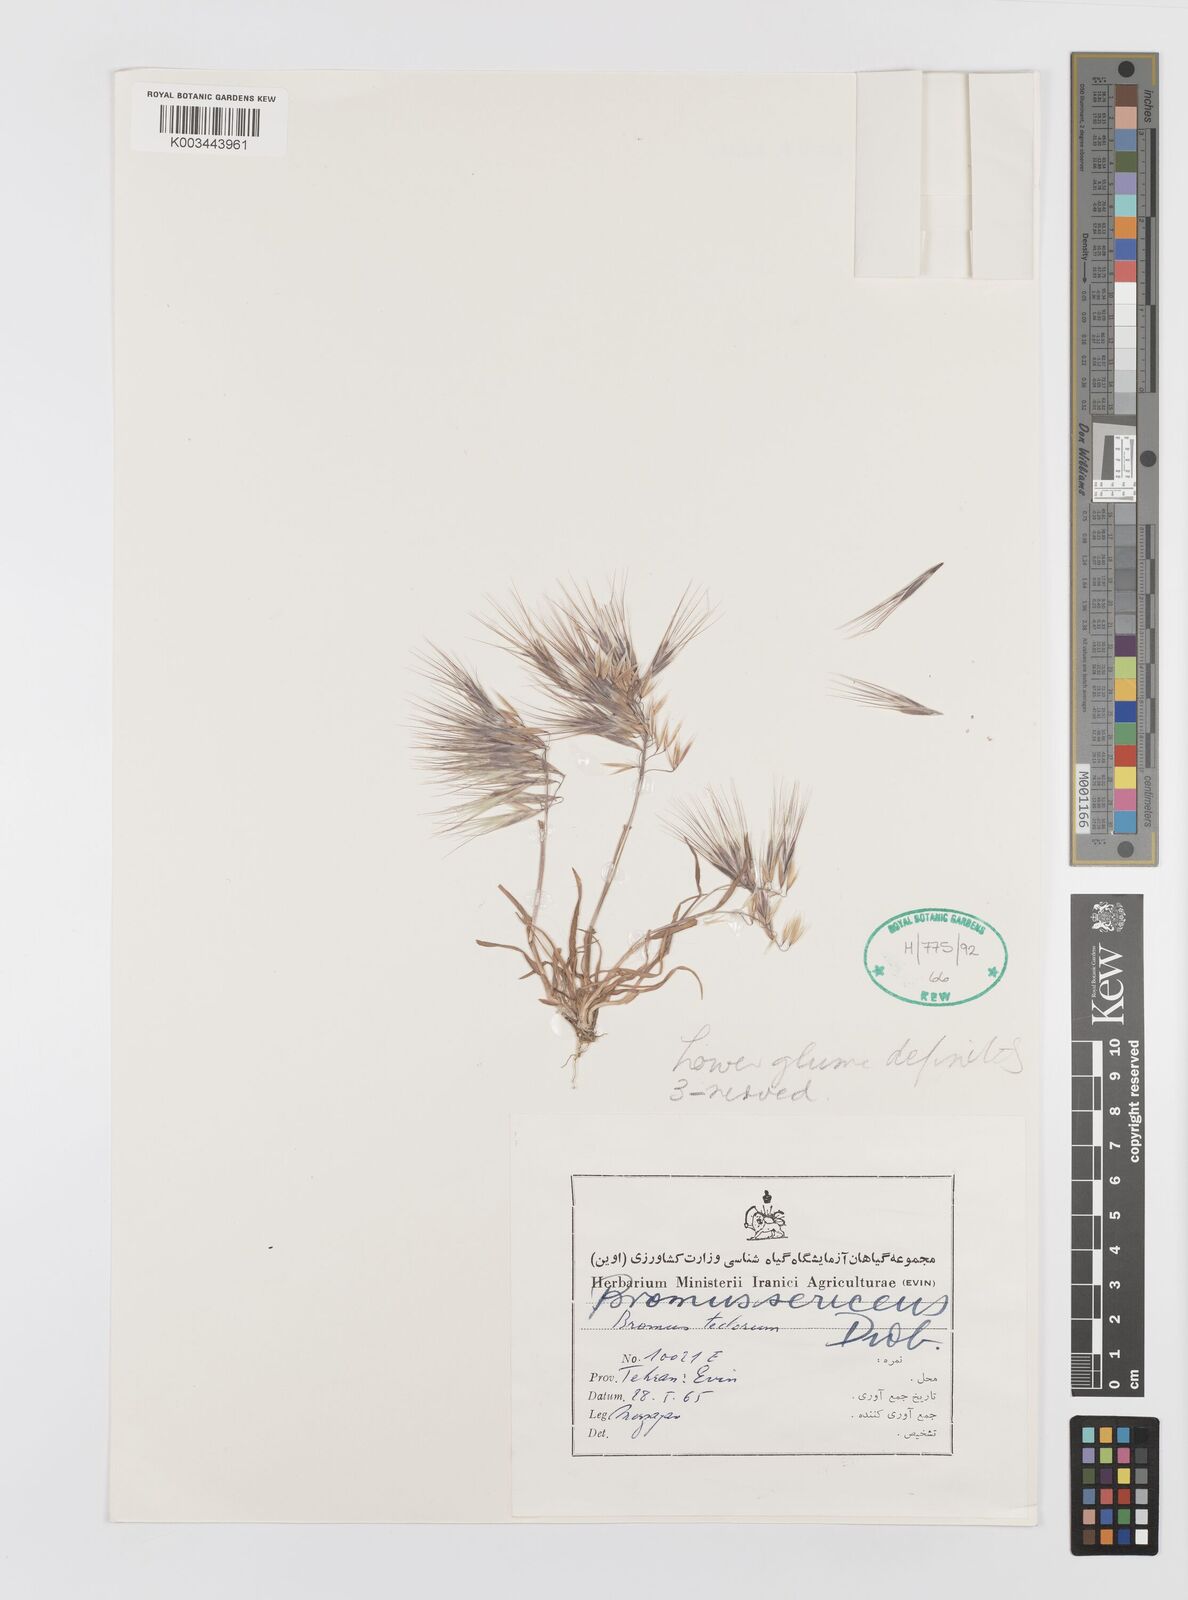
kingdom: Plantae
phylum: Tracheophyta
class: Liliopsida
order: Poales
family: Poaceae
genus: Bromus
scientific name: Bromus moeszii
